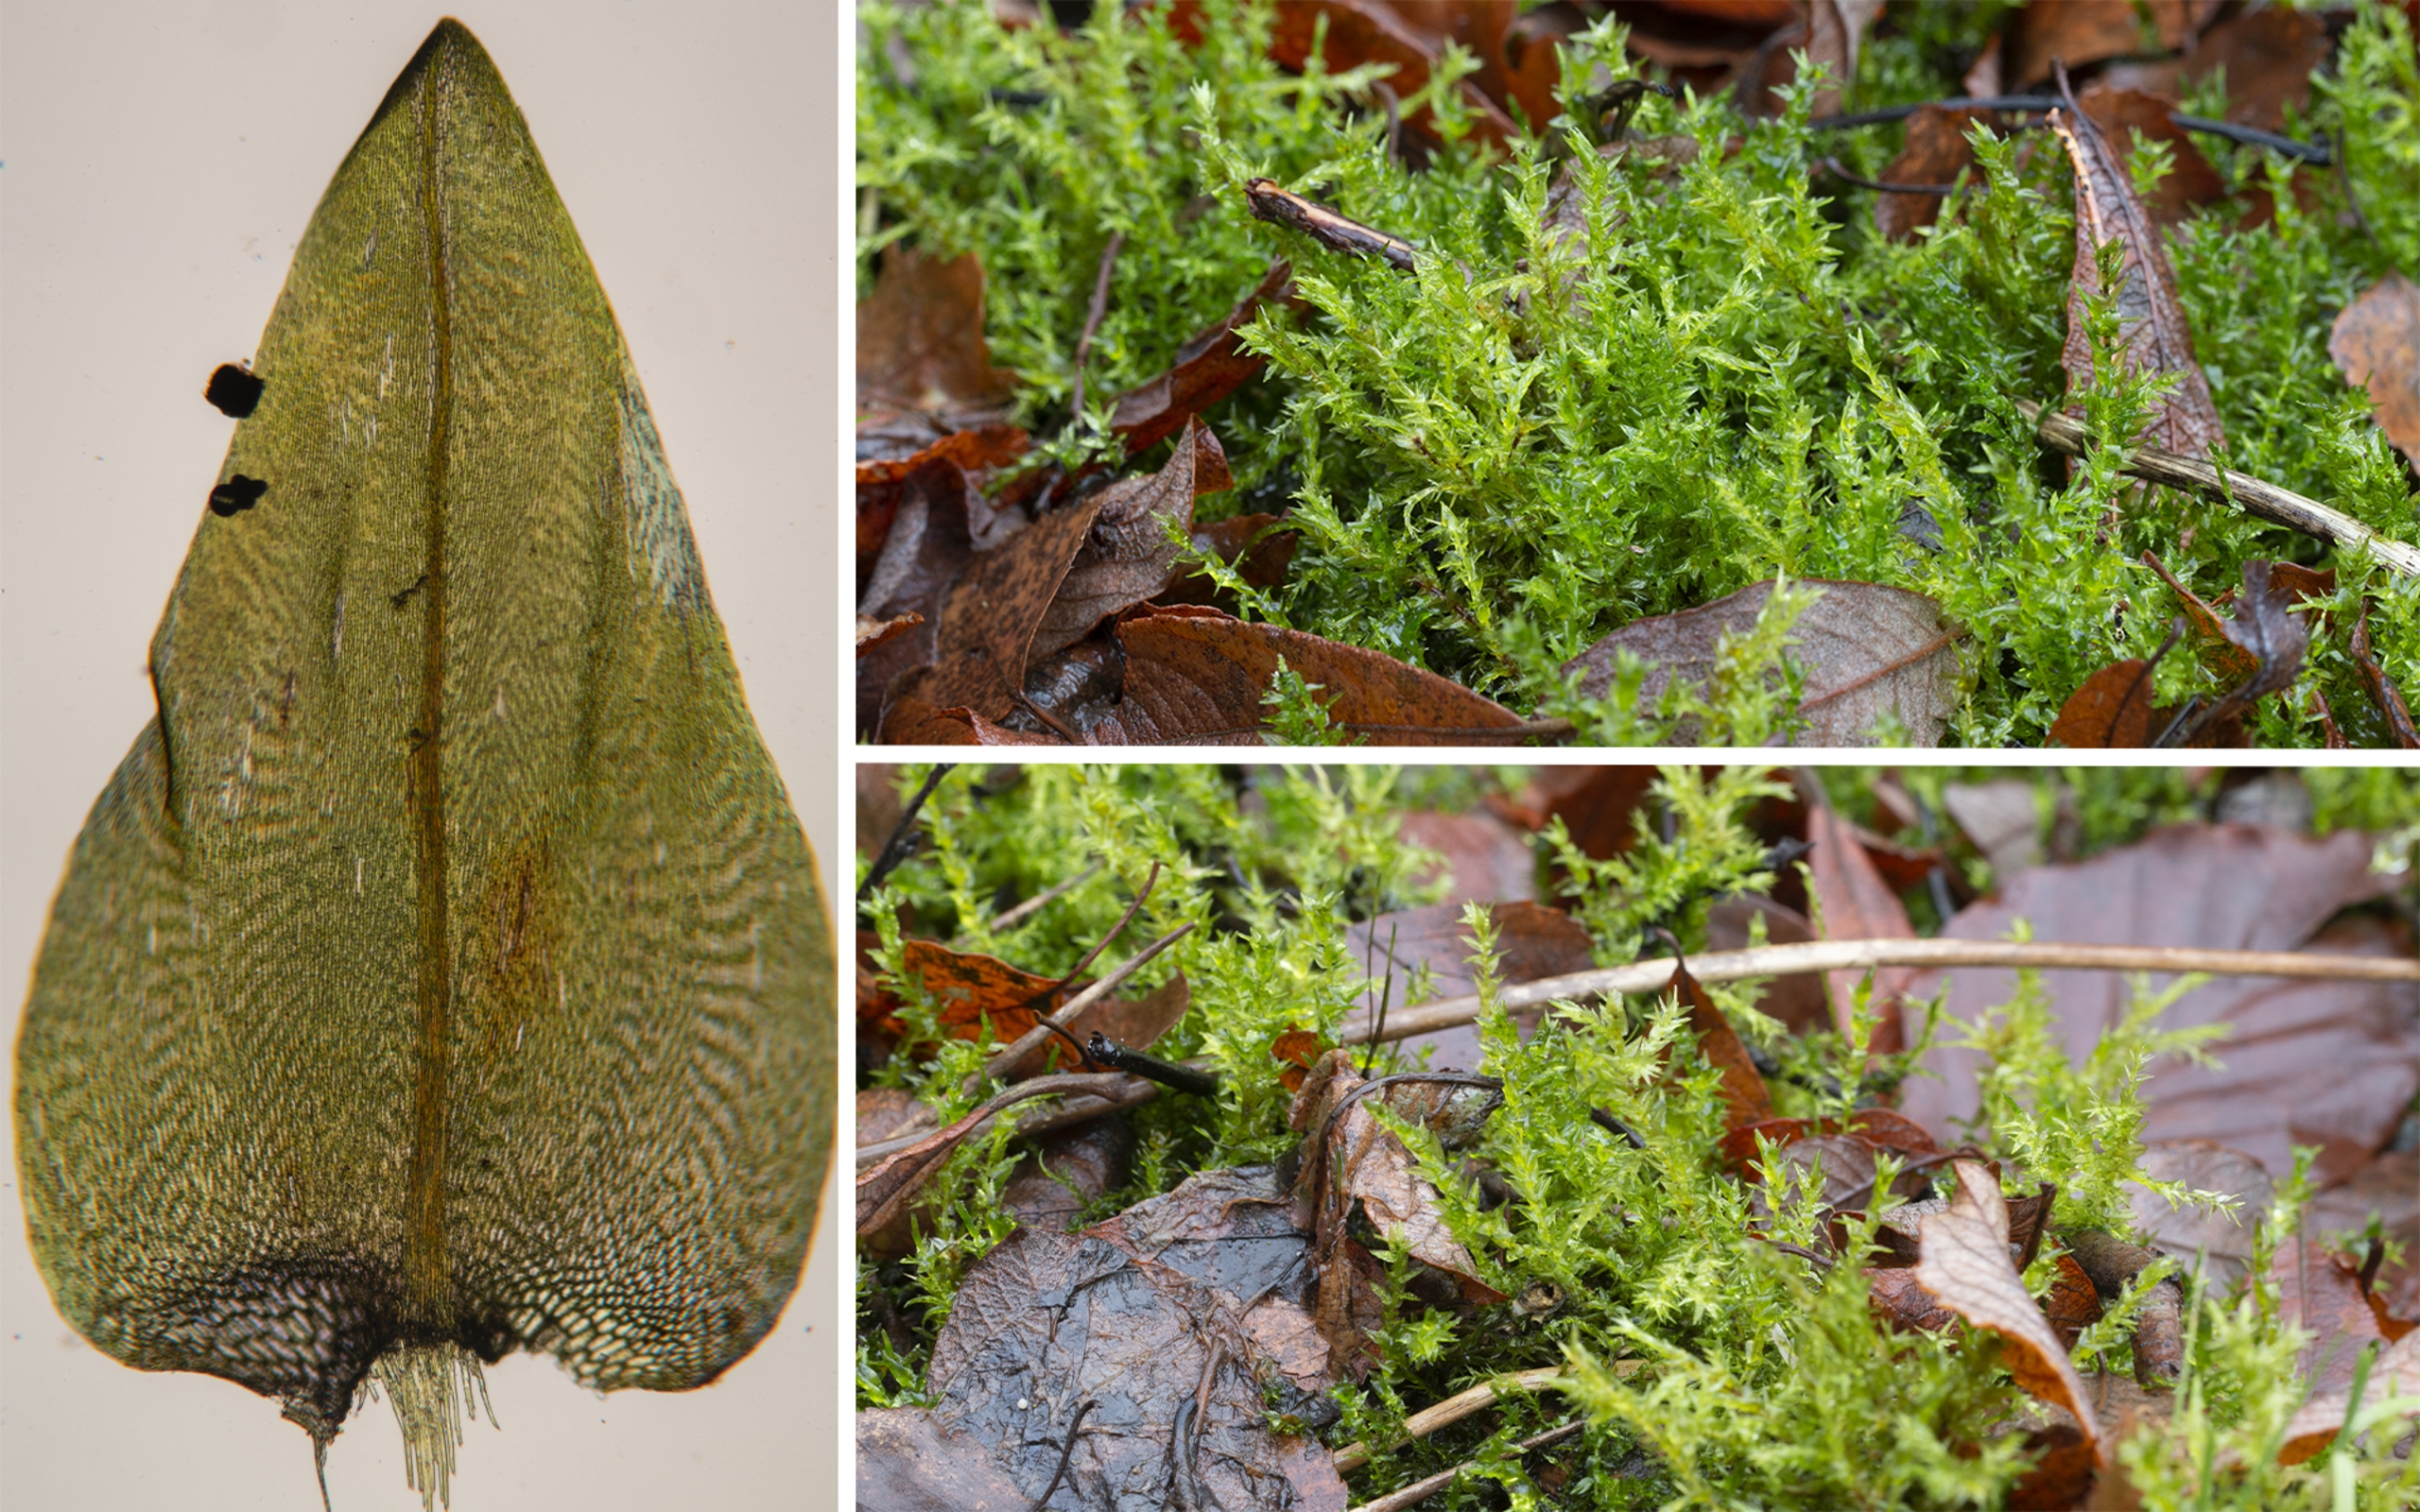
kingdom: Plantae
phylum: Bryophyta
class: Bryopsida
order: Hypnales
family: Calliergonaceae
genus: Calliergon
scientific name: Calliergon cordifolium
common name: Almindelig skebladsmos
